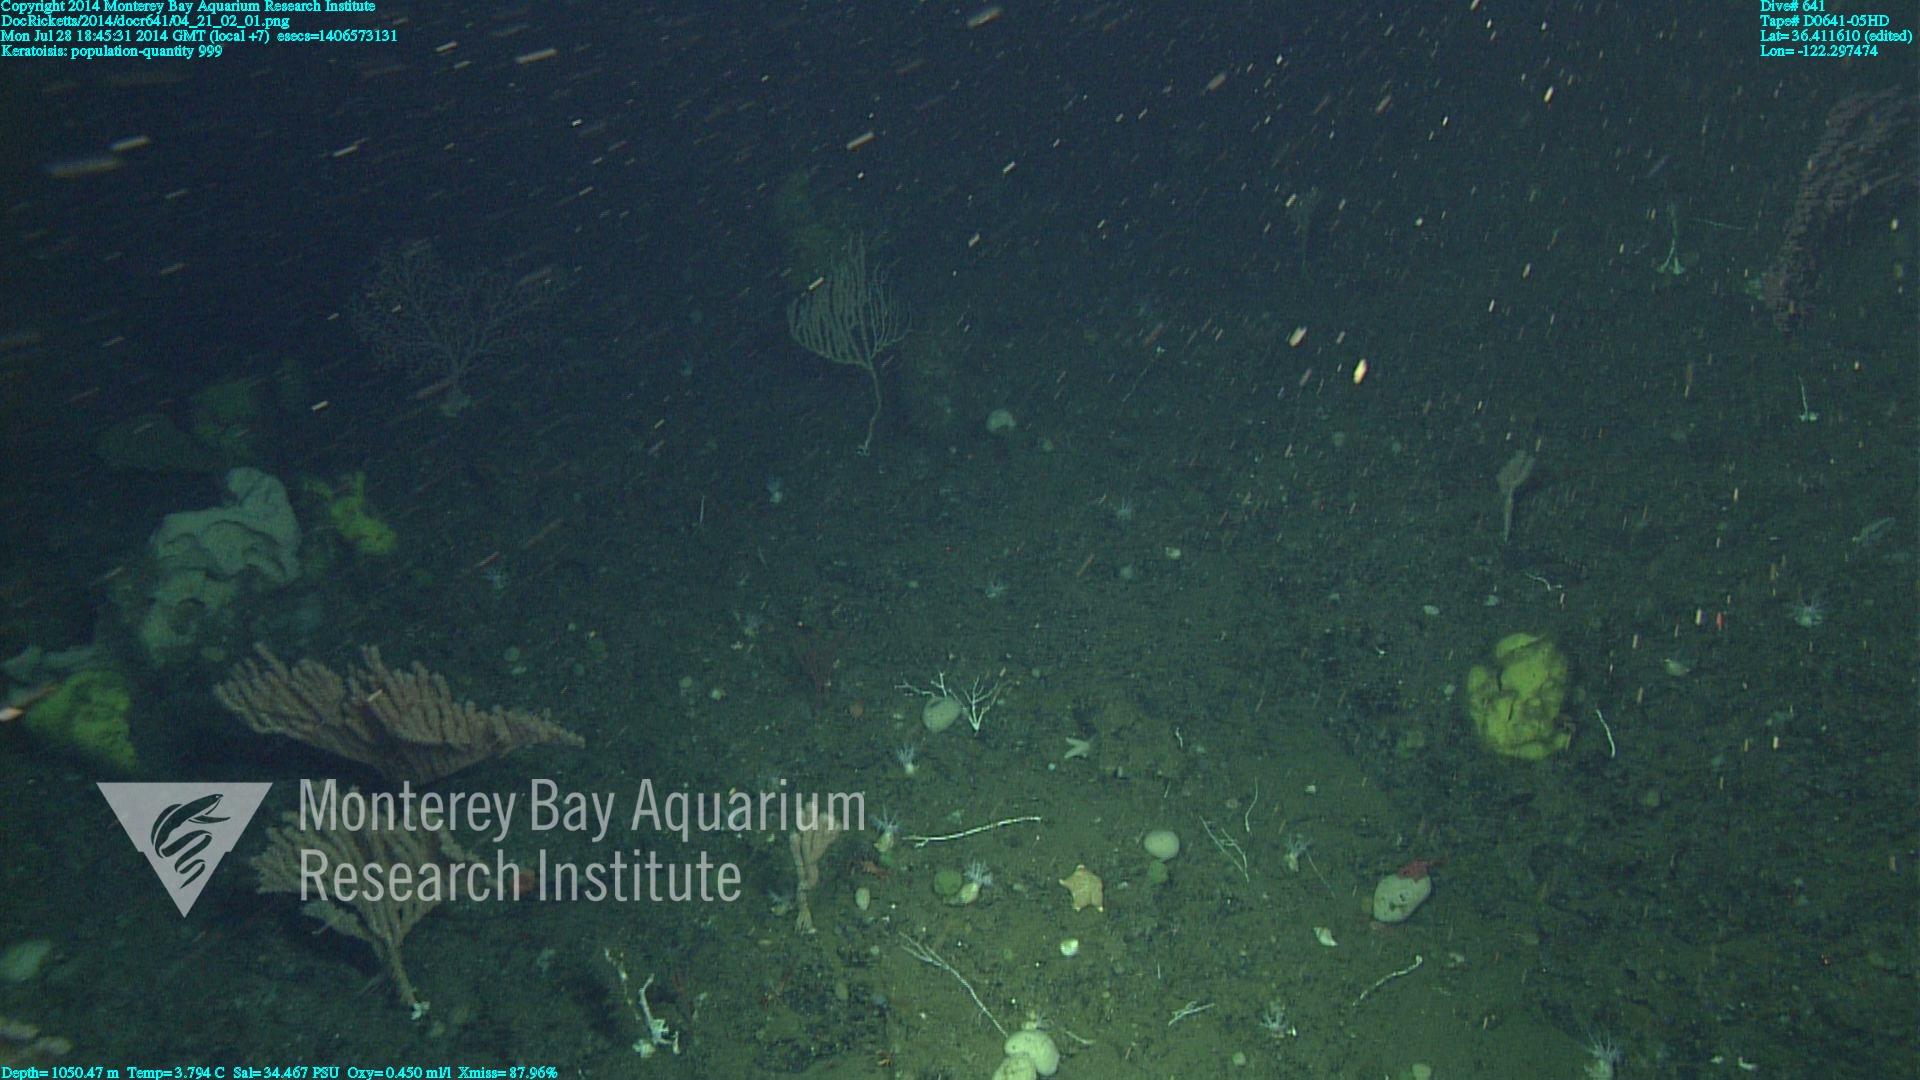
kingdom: Animalia
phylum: Cnidaria
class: Anthozoa
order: Scleralcyonacea
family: Keratoisididae
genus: Keratoisis
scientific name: Keratoisis
